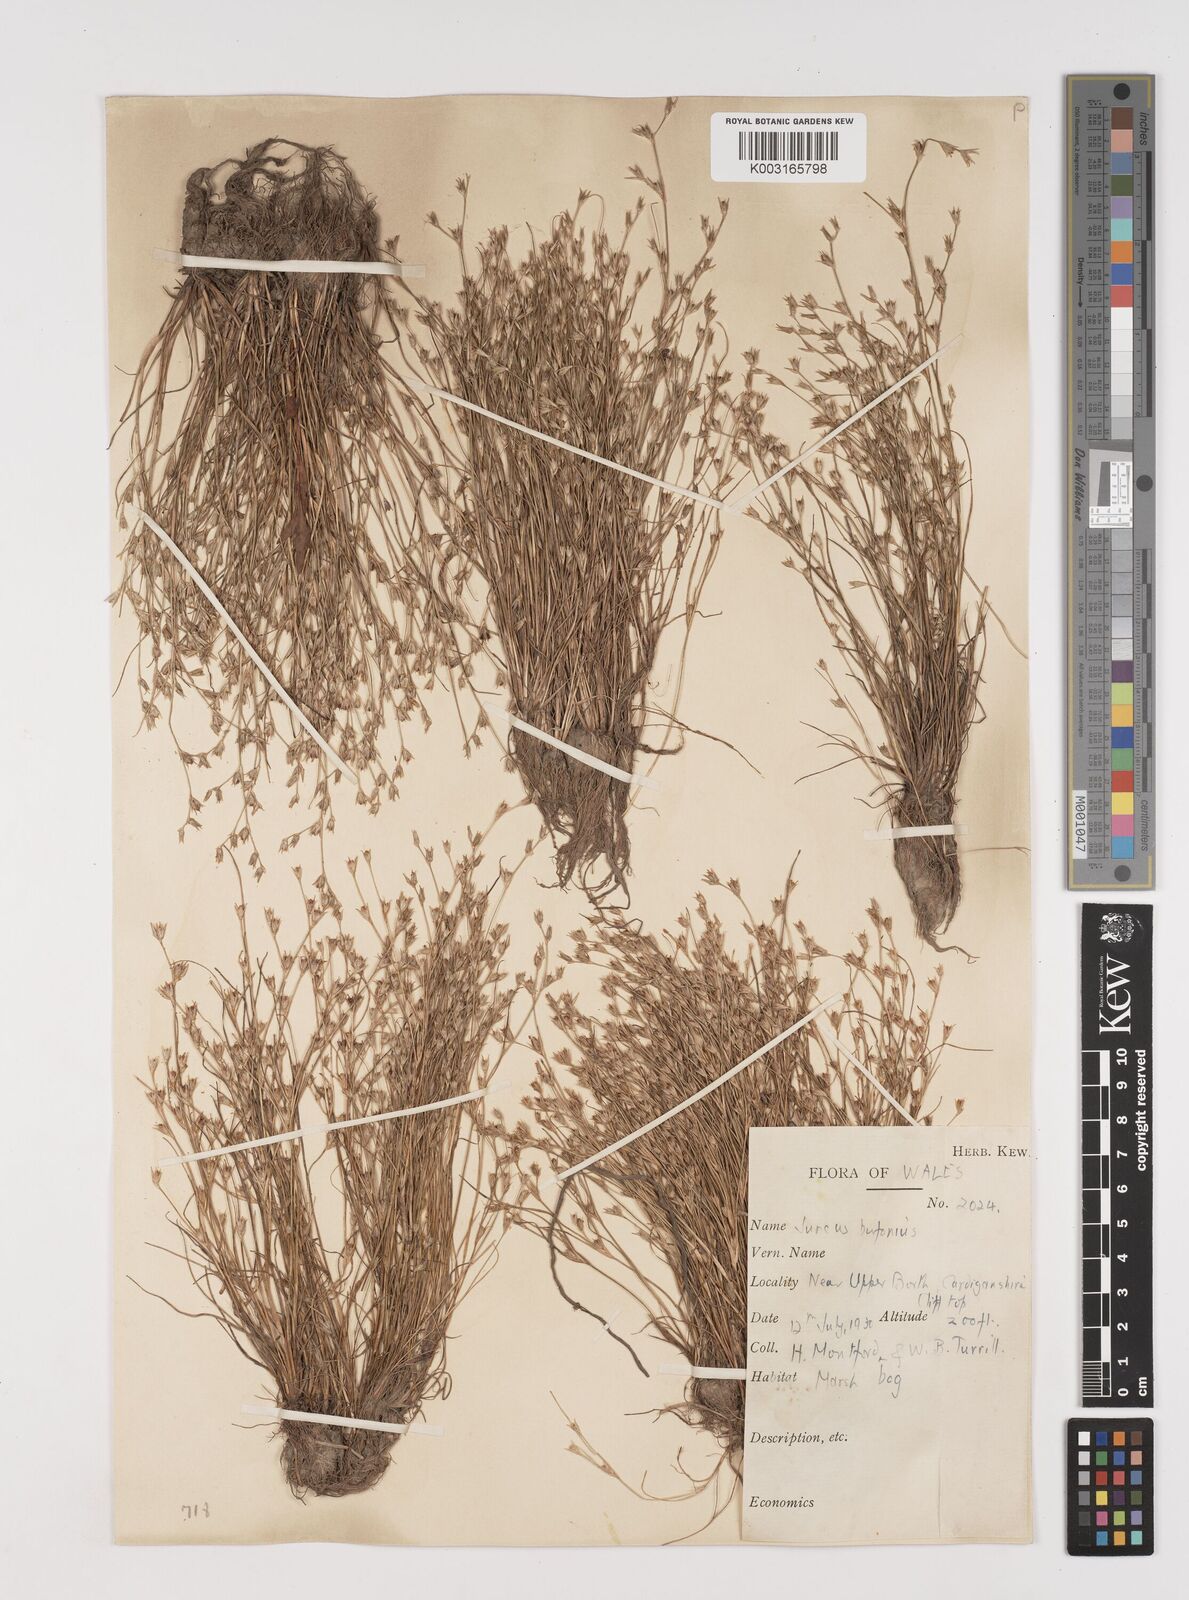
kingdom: Plantae
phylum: Tracheophyta
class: Liliopsida
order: Poales
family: Juncaceae
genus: Juncus
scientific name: Juncus bufonius
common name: Toad rush
